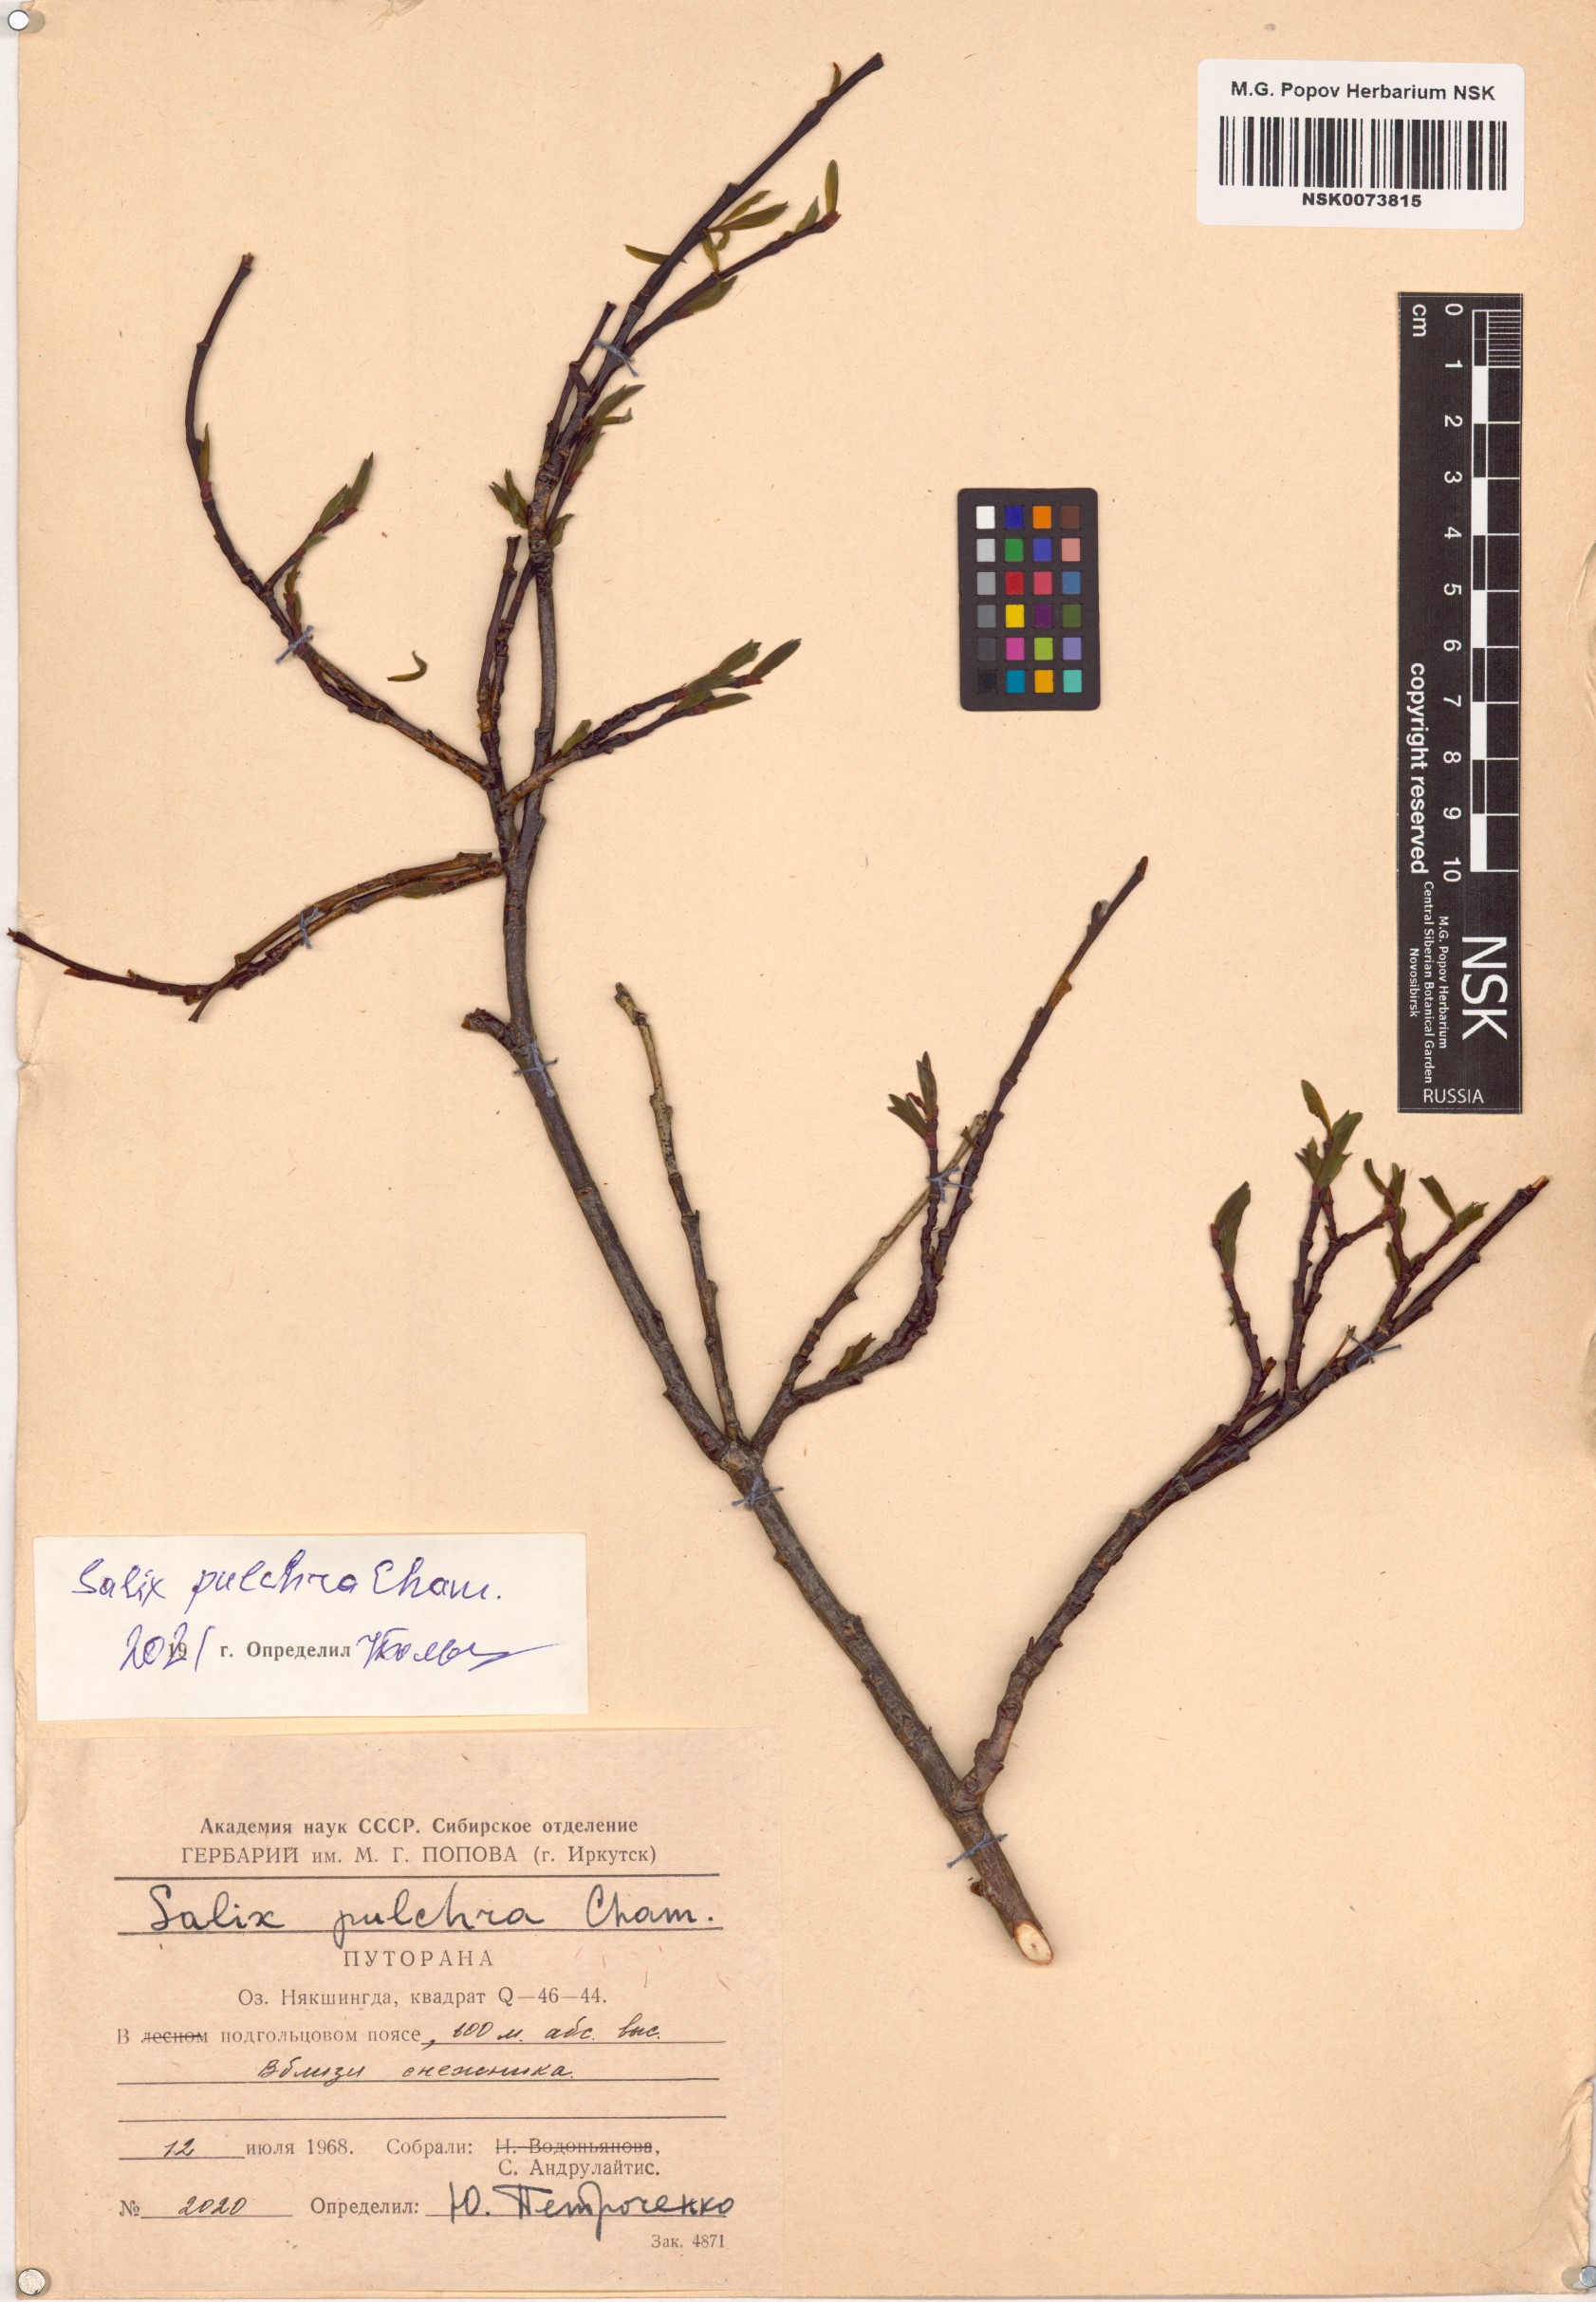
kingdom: Plantae
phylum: Tracheophyta
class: Magnoliopsida
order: Malpighiales
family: Salicaceae
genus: Salix
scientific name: Salix pulchra
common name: Diamond-leaved willow
